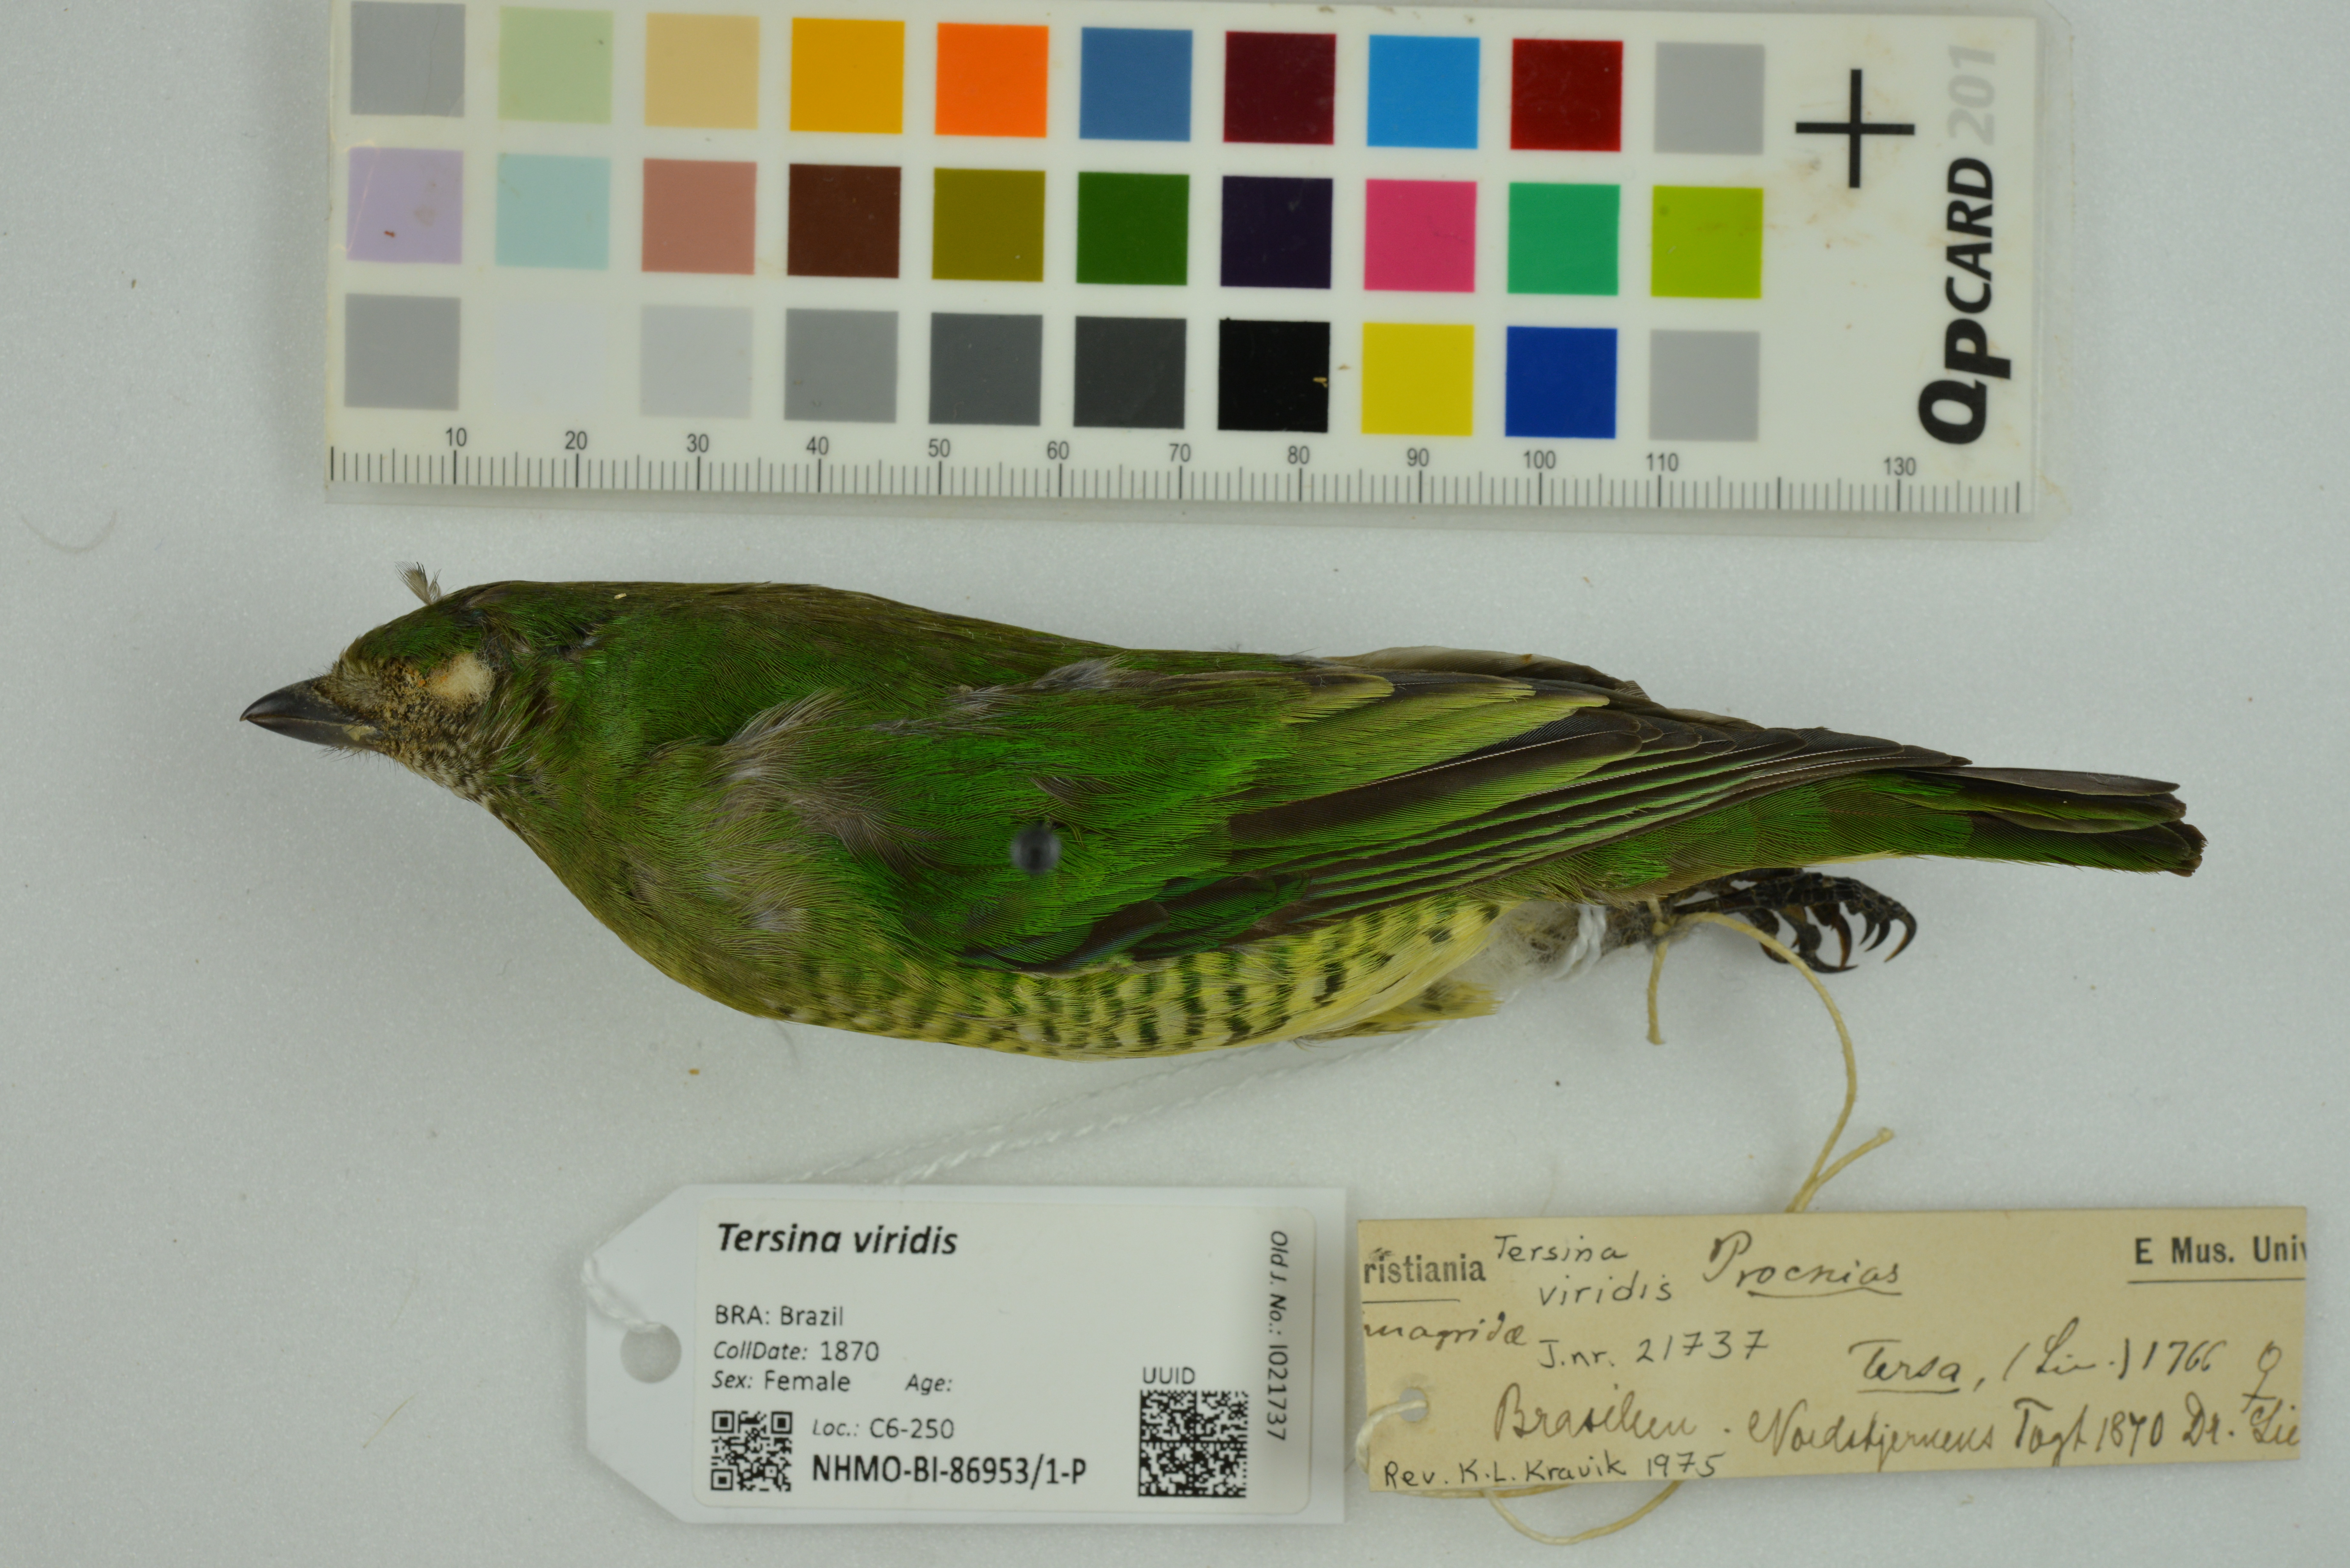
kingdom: Animalia
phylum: Chordata
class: Aves
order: Passeriformes
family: Thraupidae
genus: Tersina
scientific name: Tersina viridis
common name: Swallow tanager
